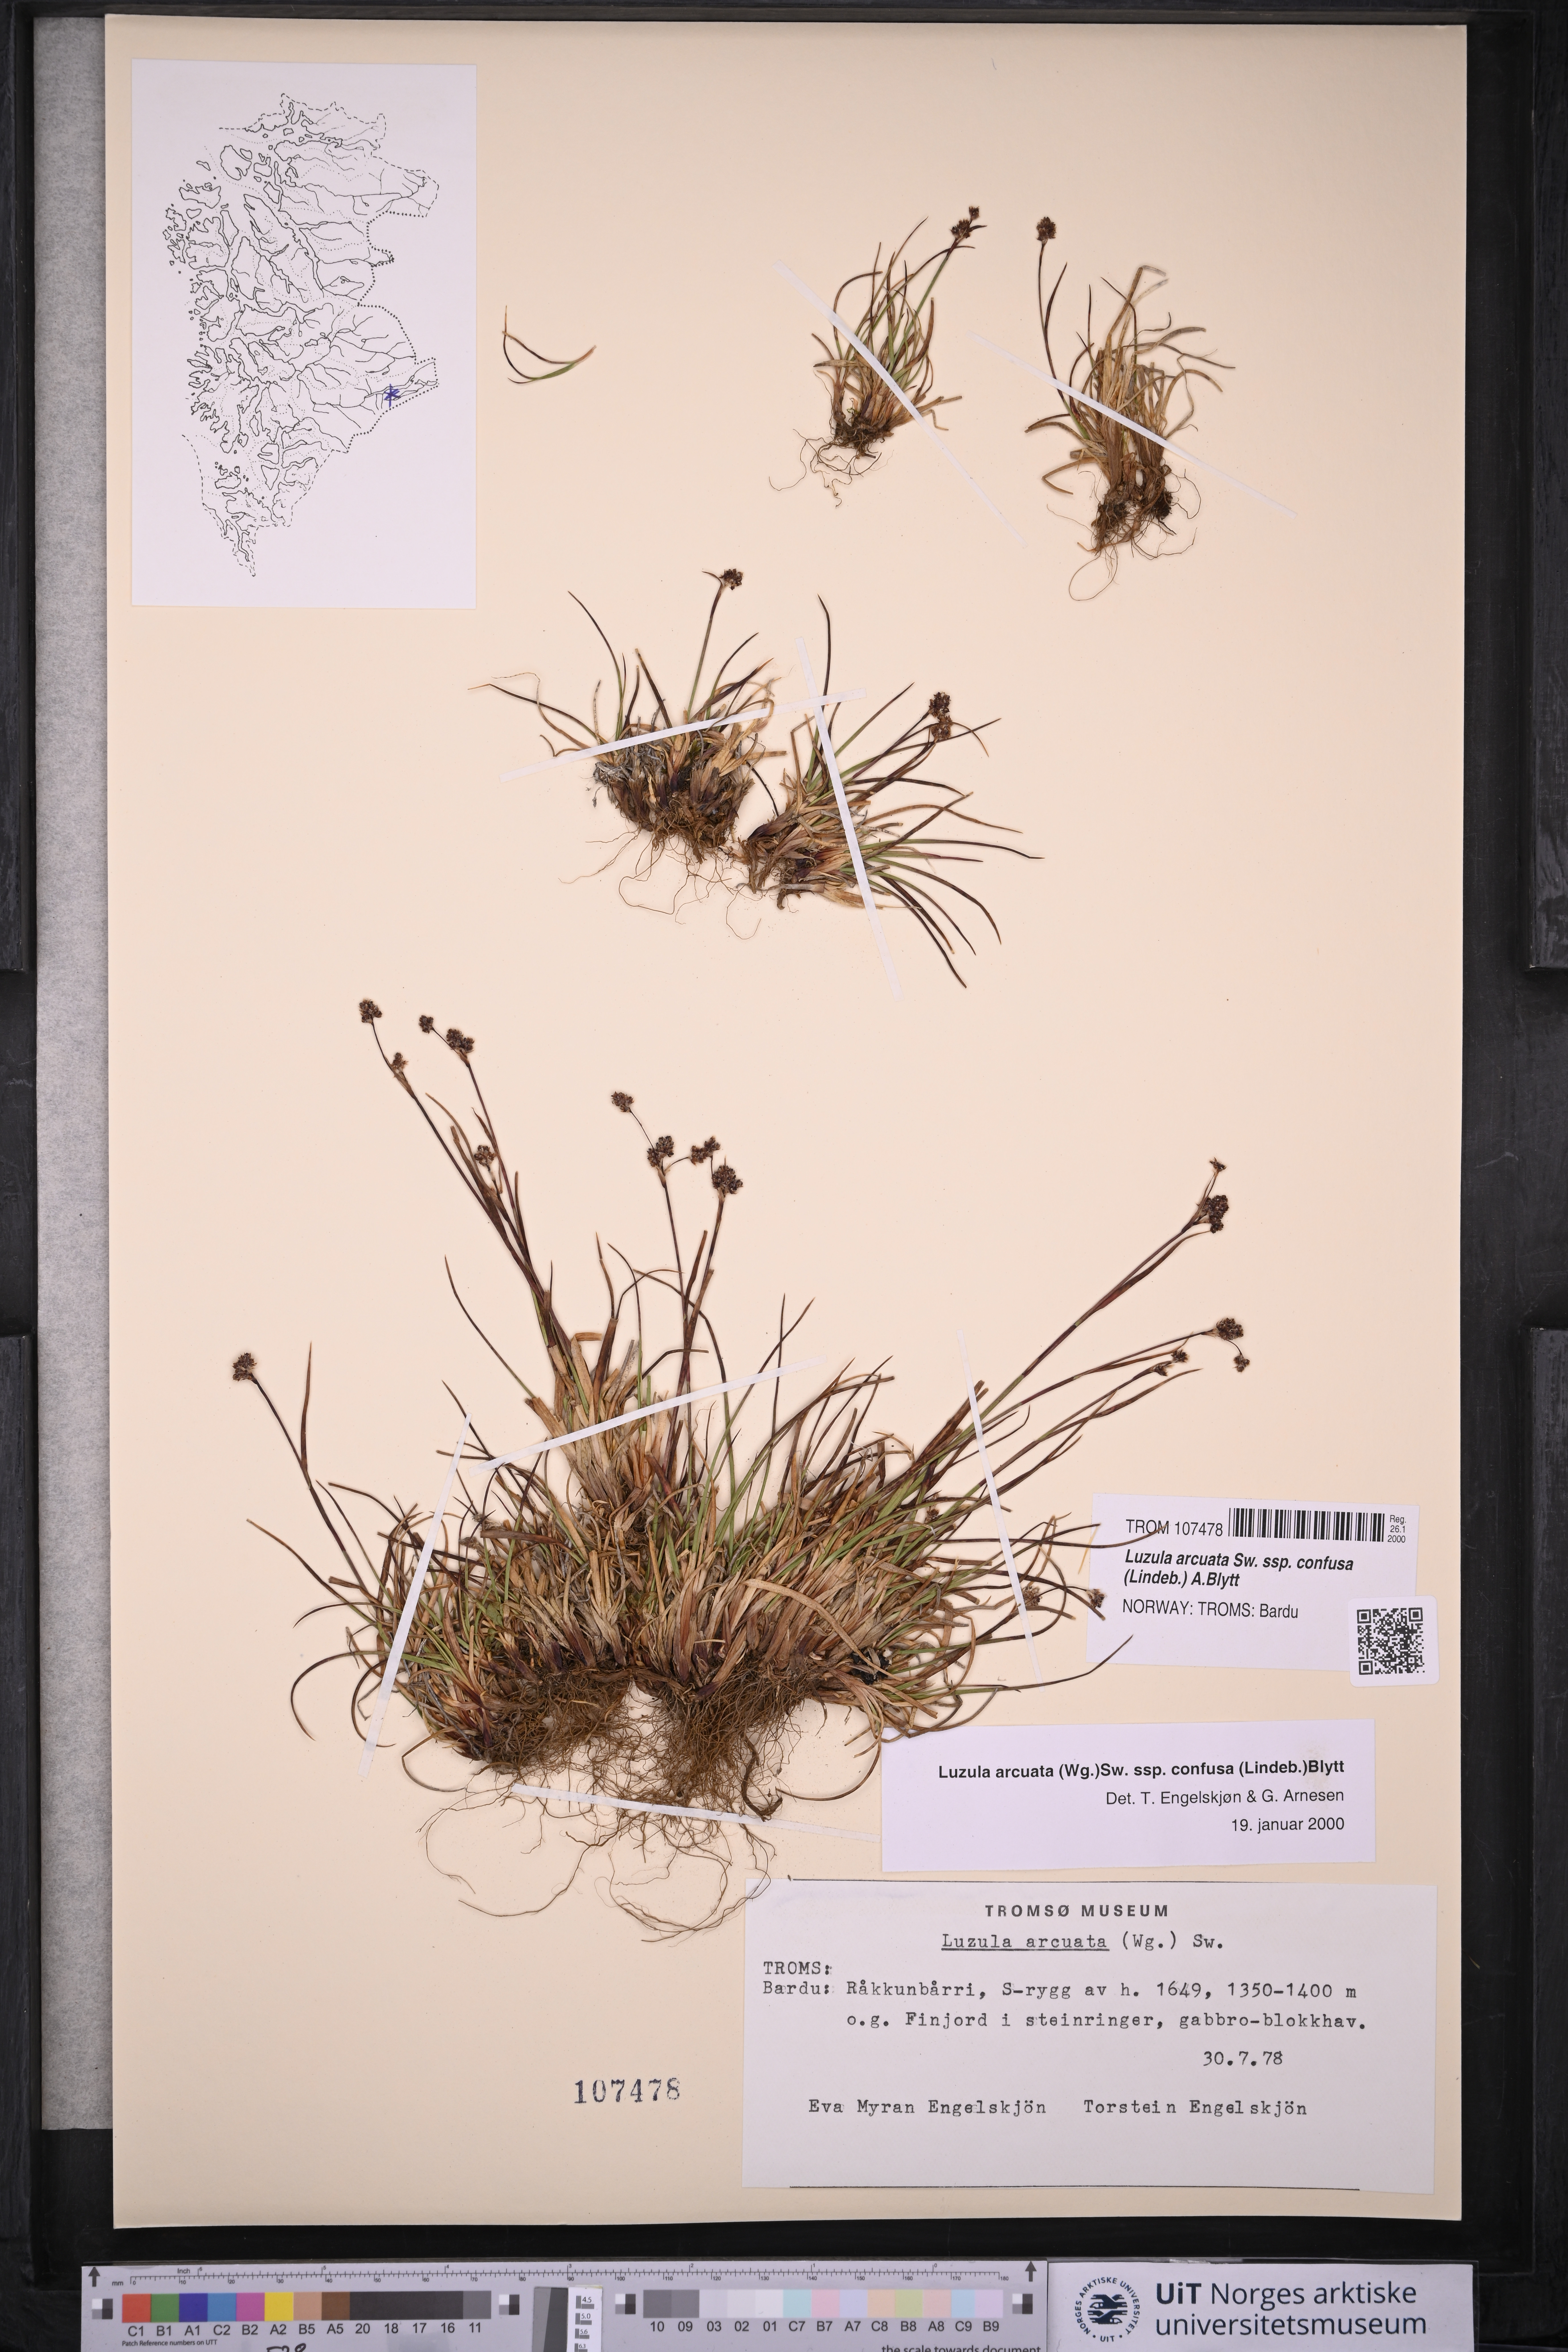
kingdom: Plantae
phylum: Tracheophyta
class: Liliopsida
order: Poales
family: Juncaceae
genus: Luzula
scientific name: Luzula confusa
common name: Northern wood rush
